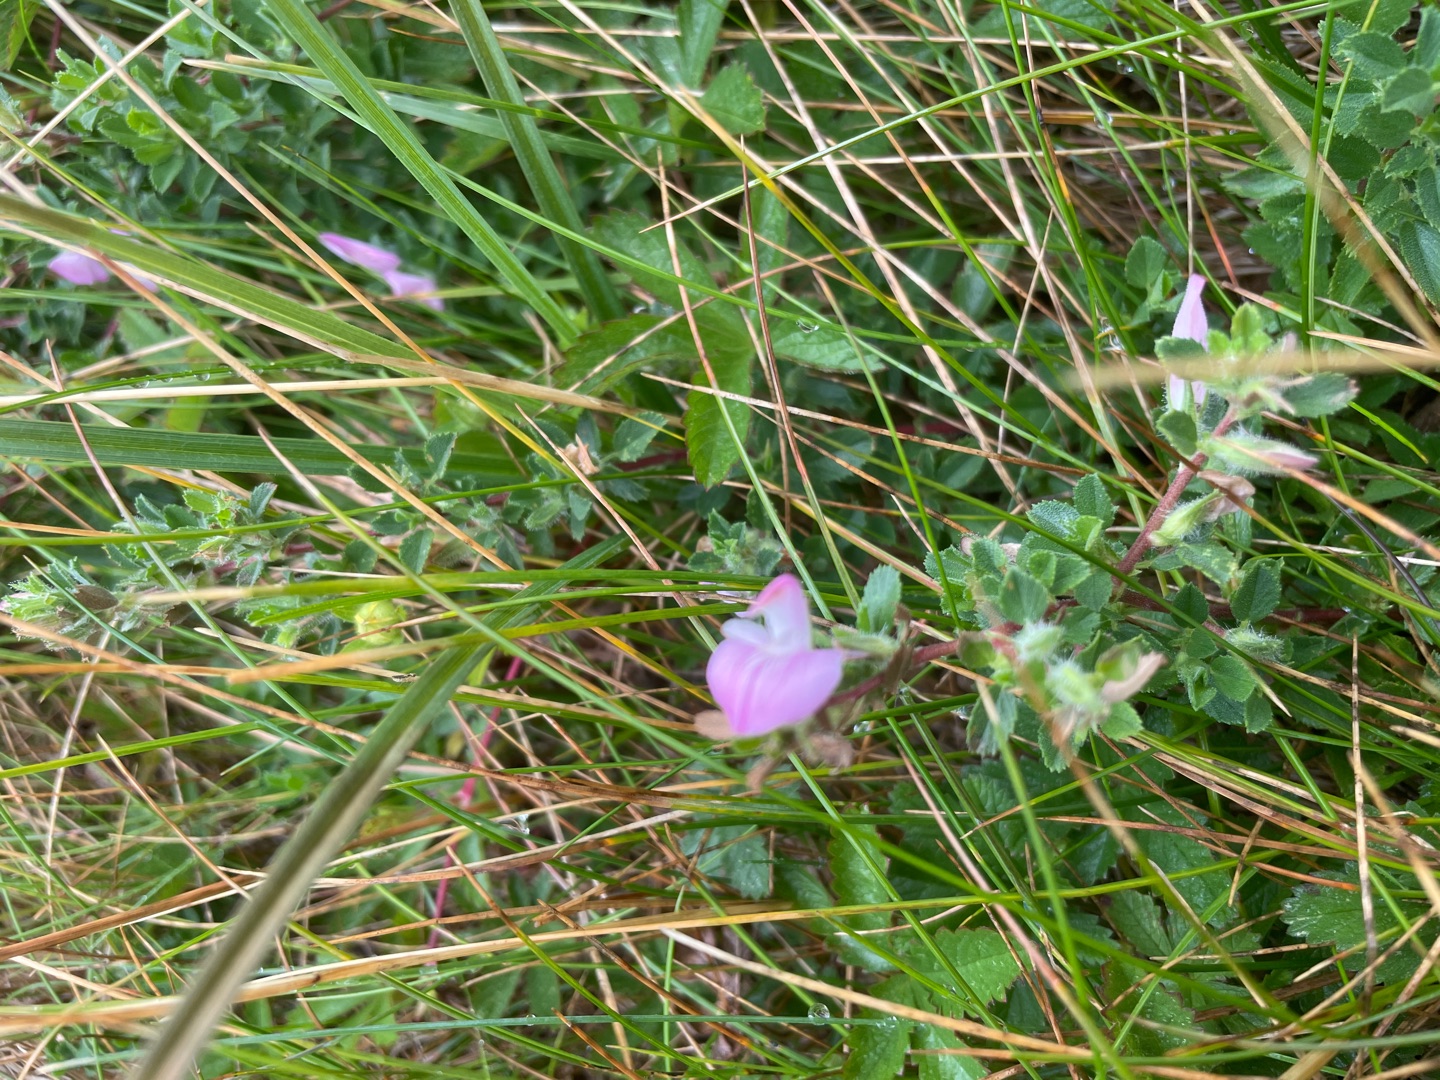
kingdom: Plantae
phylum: Tracheophyta
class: Magnoliopsida
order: Fabales
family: Fabaceae
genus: Ononis
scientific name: Ononis spinosa
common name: Mark-krageklo
